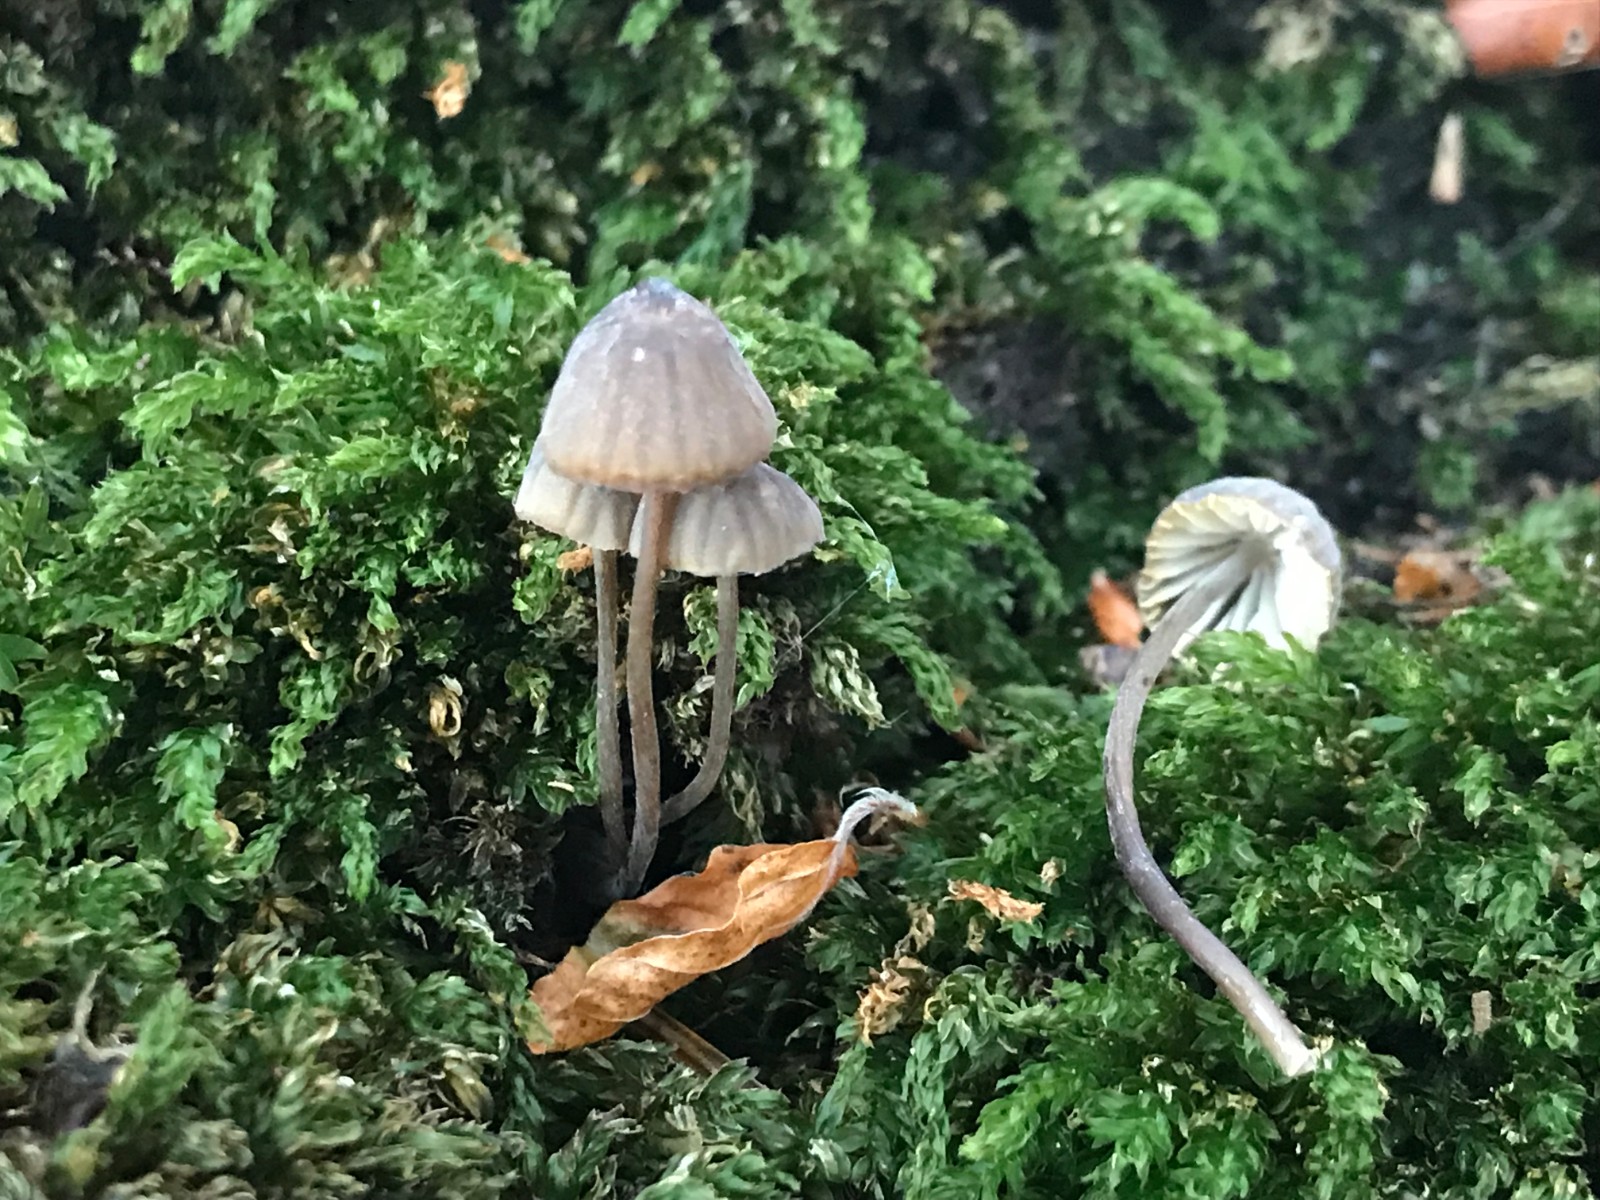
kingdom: Fungi
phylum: Basidiomycota
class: Agaricomycetes
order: Agaricales
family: Mycenaceae
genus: Mycena
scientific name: Mycena galopus
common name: hvidmælket huesvamp
